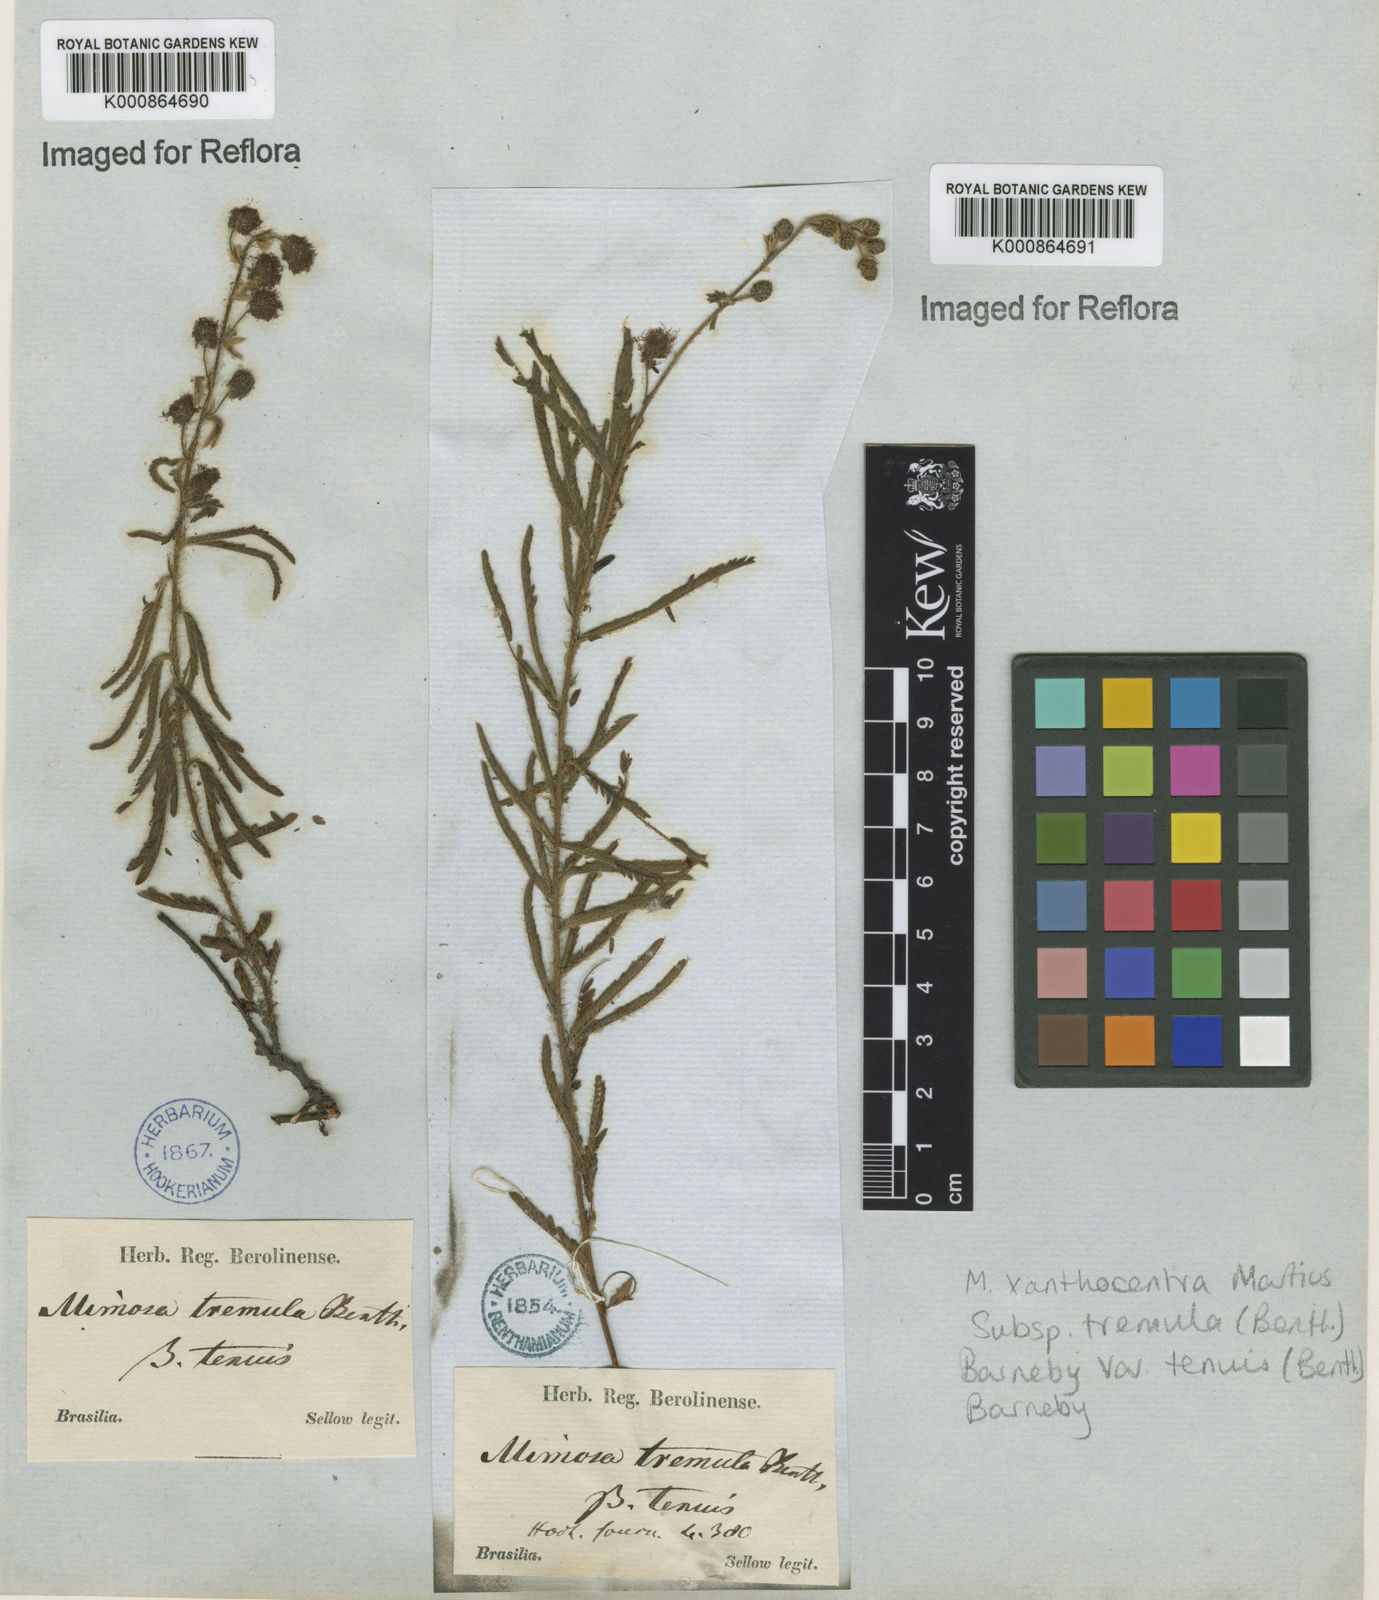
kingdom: Plantae
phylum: Tracheophyta
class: Magnoliopsida
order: Fabales
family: Fabaceae
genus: Mimosa
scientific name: Mimosa xanthocentra
